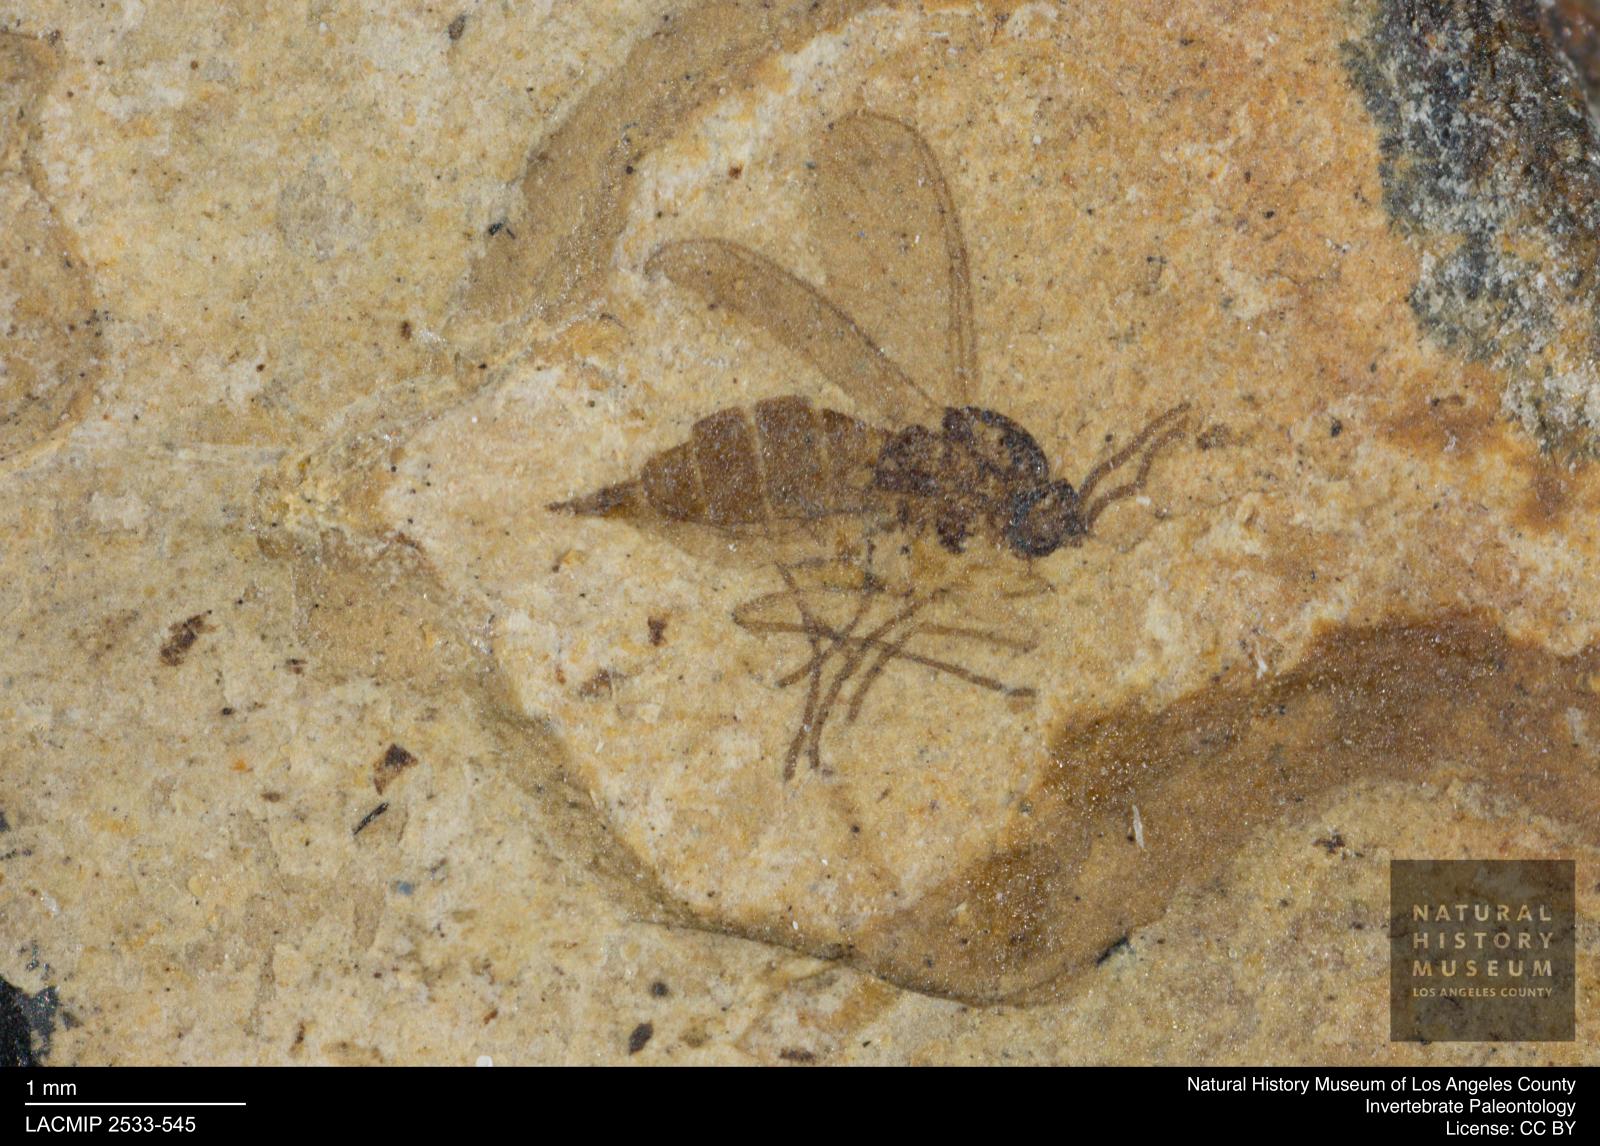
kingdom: Animalia
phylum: Arthropoda
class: Insecta
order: Diptera
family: Sciaridae
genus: Sciara
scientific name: Sciara amicula
